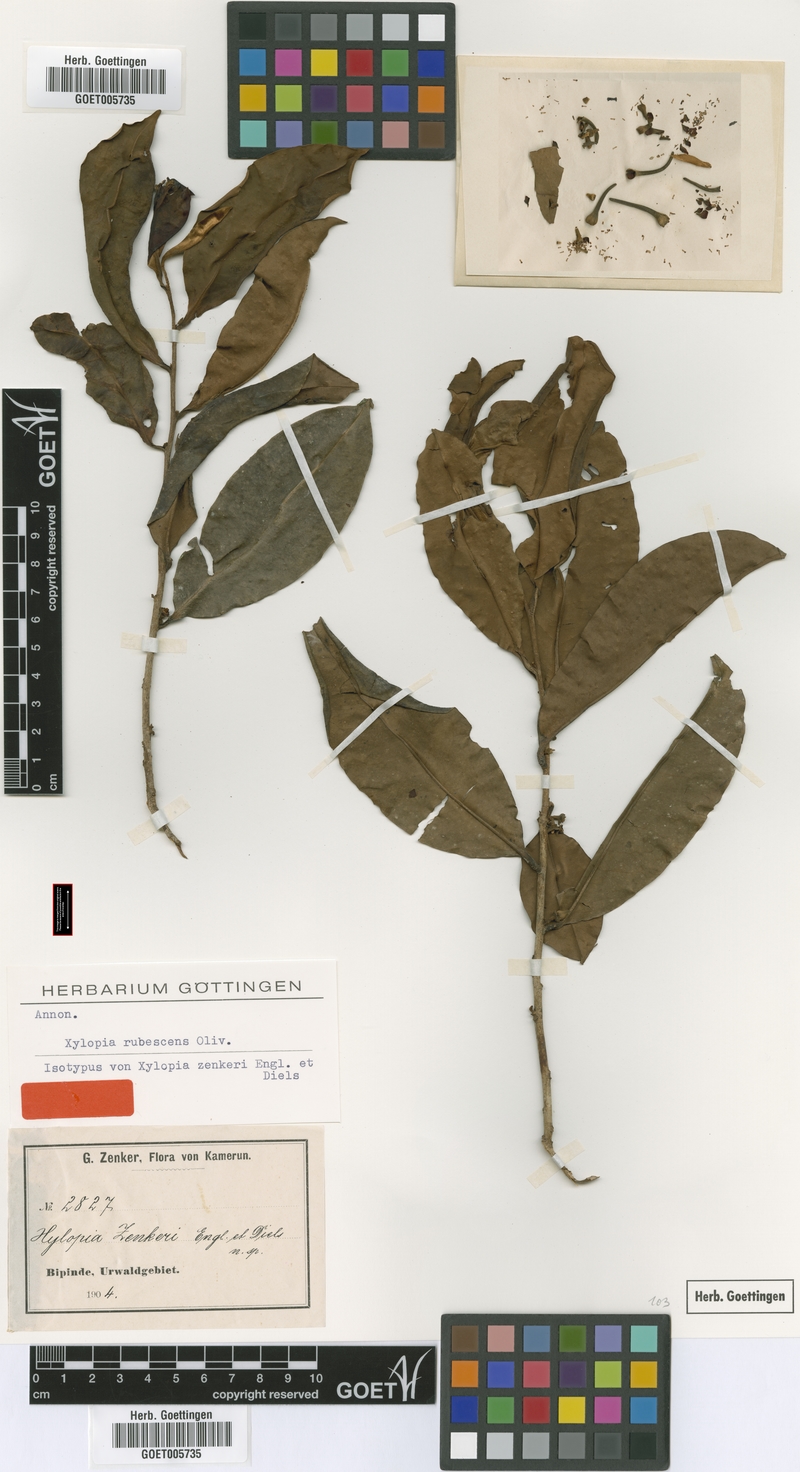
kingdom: Plantae
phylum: Tracheophyta
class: Magnoliopsida
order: Magnoliales
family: Annonaceae
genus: Xylopia
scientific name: Xylopia rubescens
